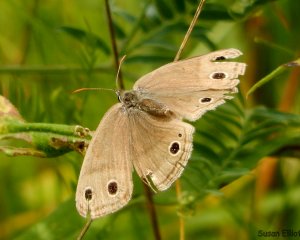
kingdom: Animalia
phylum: Arthropoda
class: Insecta
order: Lepidoptera
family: Nymphalidae
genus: Euptychia
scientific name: Euptychia cymela
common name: Little Wood Satyr
